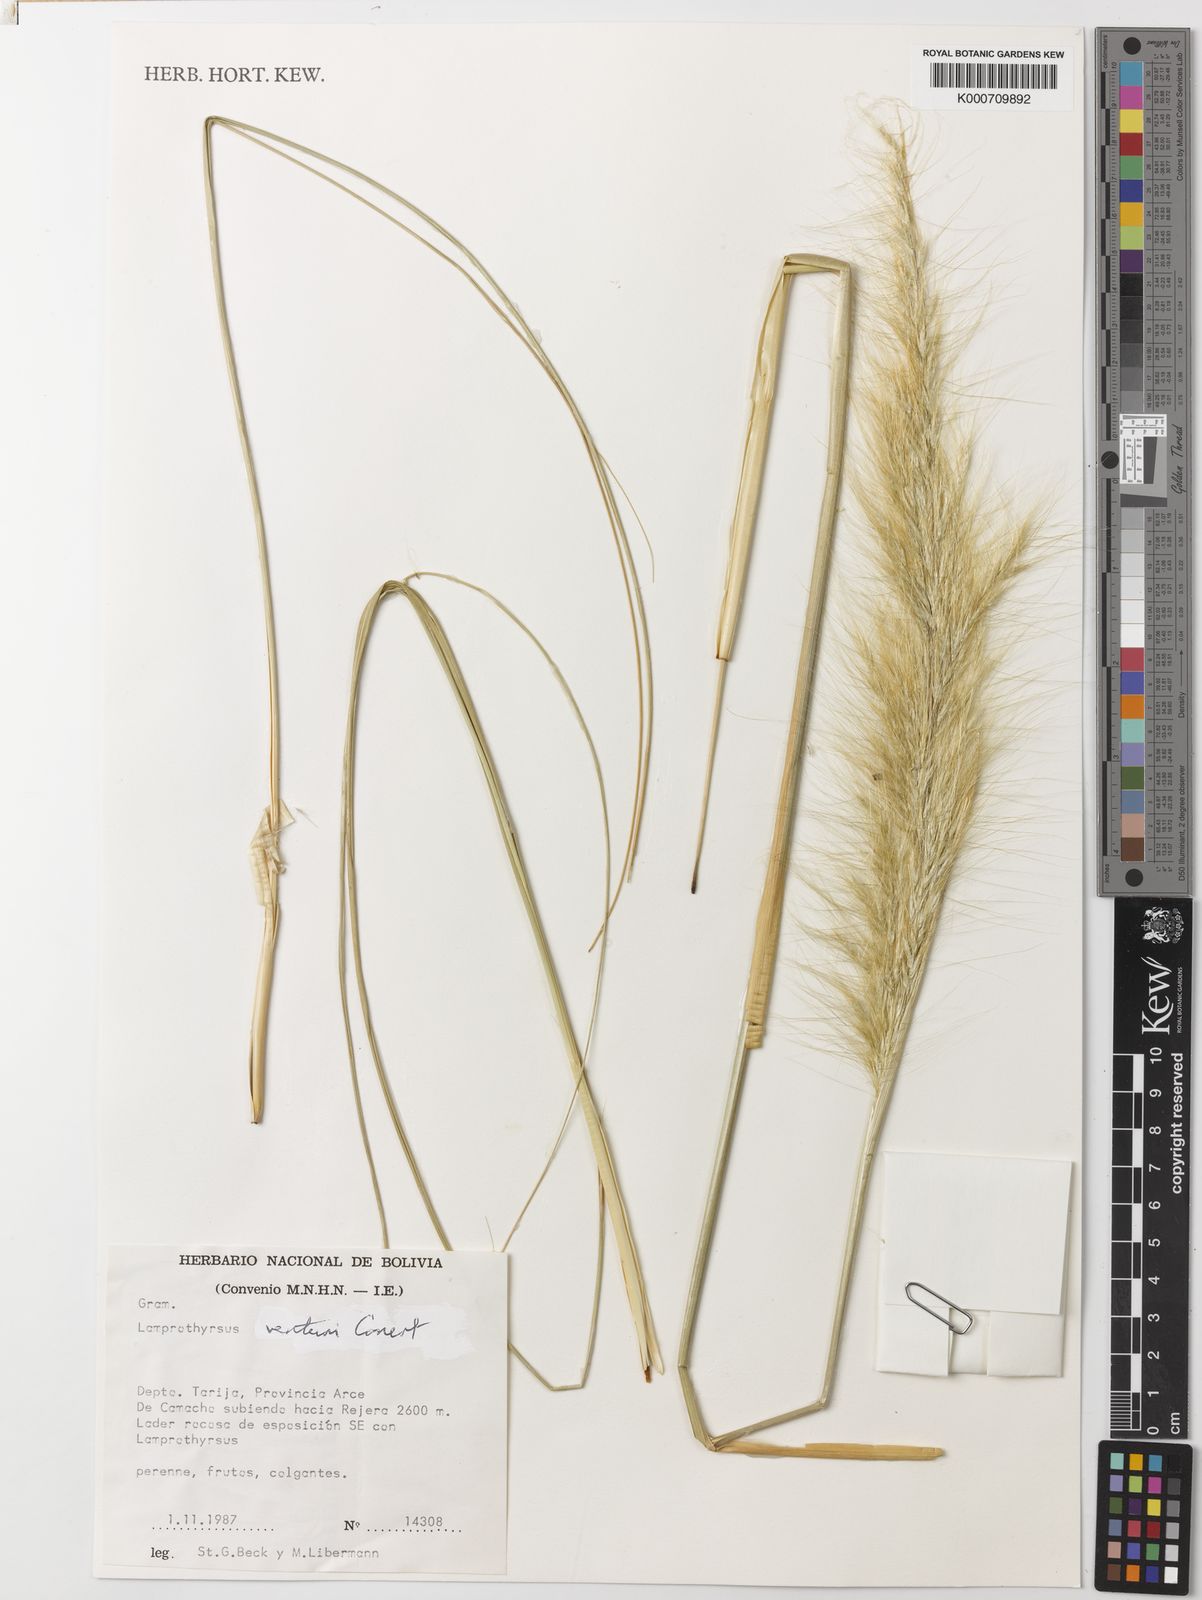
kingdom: Plantae
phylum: Tracheophyta
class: Liliopsida
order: Poales
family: Poaceae
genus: Cortaderia
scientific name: Cortaderia hieronymi
